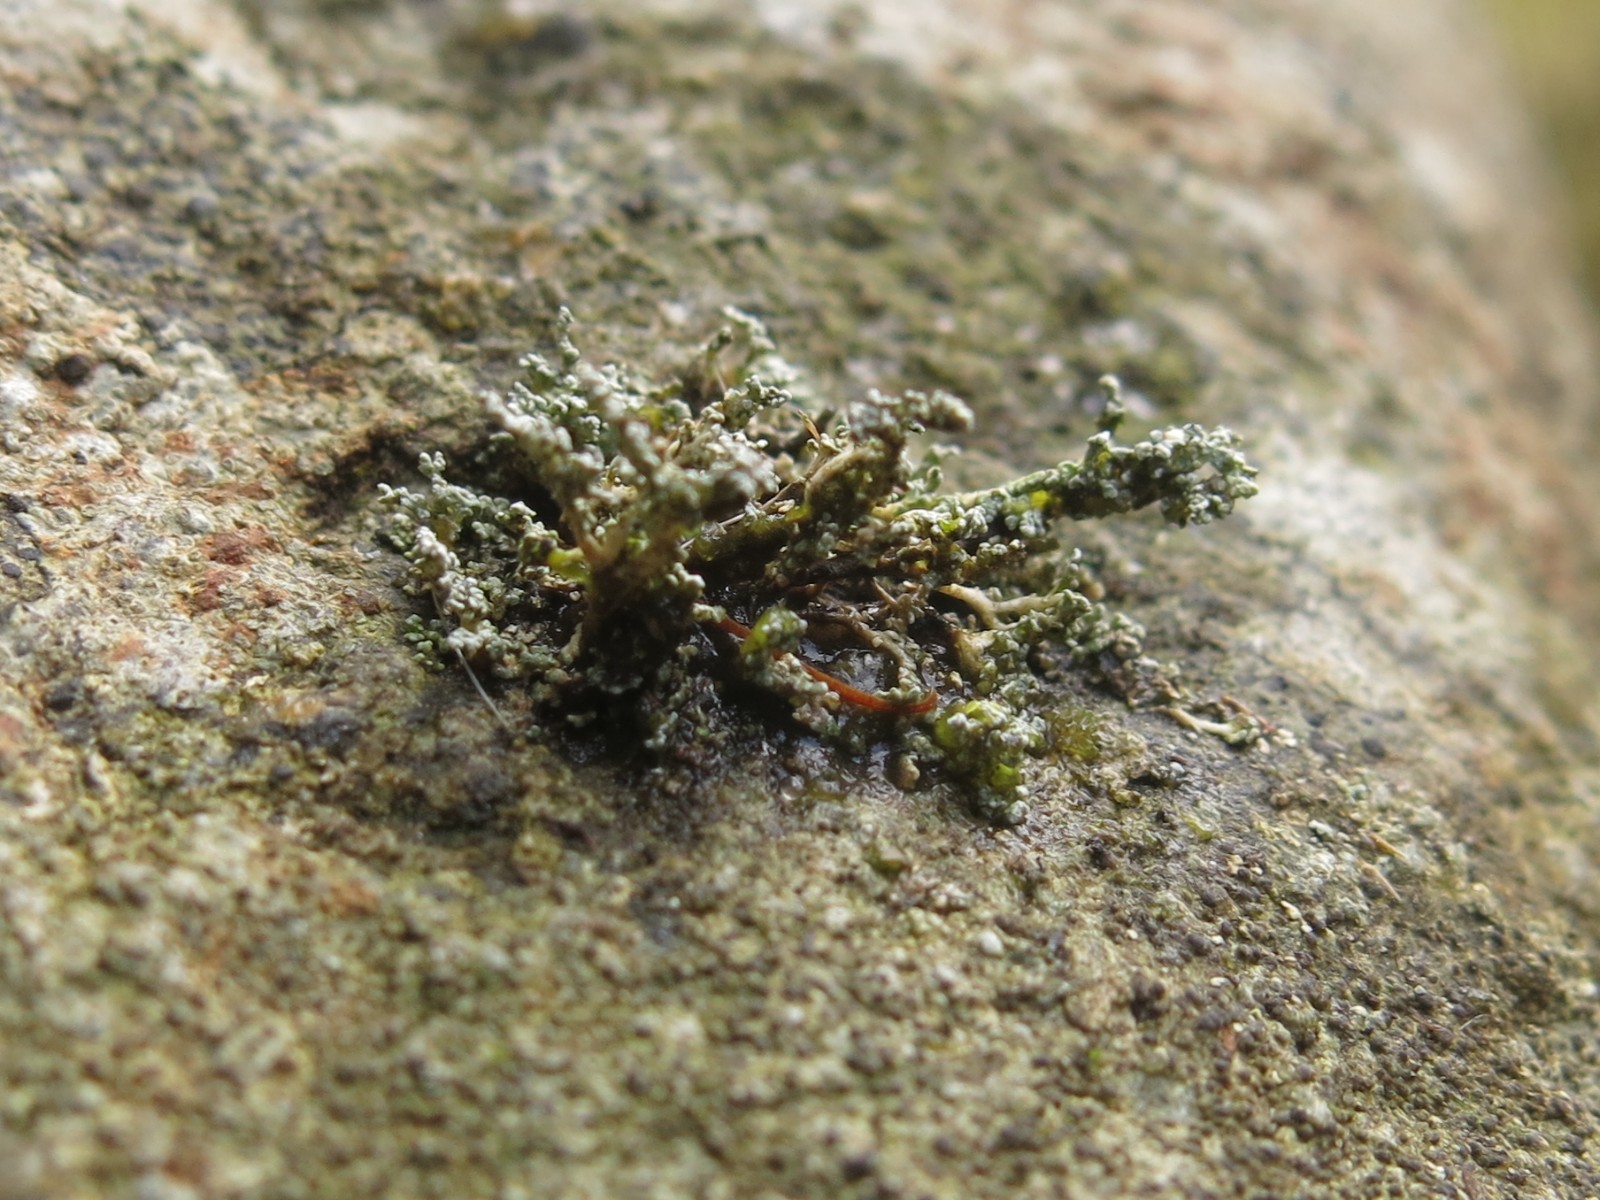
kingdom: Fungi
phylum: Ascomycota
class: Lecanoromycetes
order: Lecanorales
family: Stereocaulaceae
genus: Stereocaulon
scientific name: Stereocaulon
